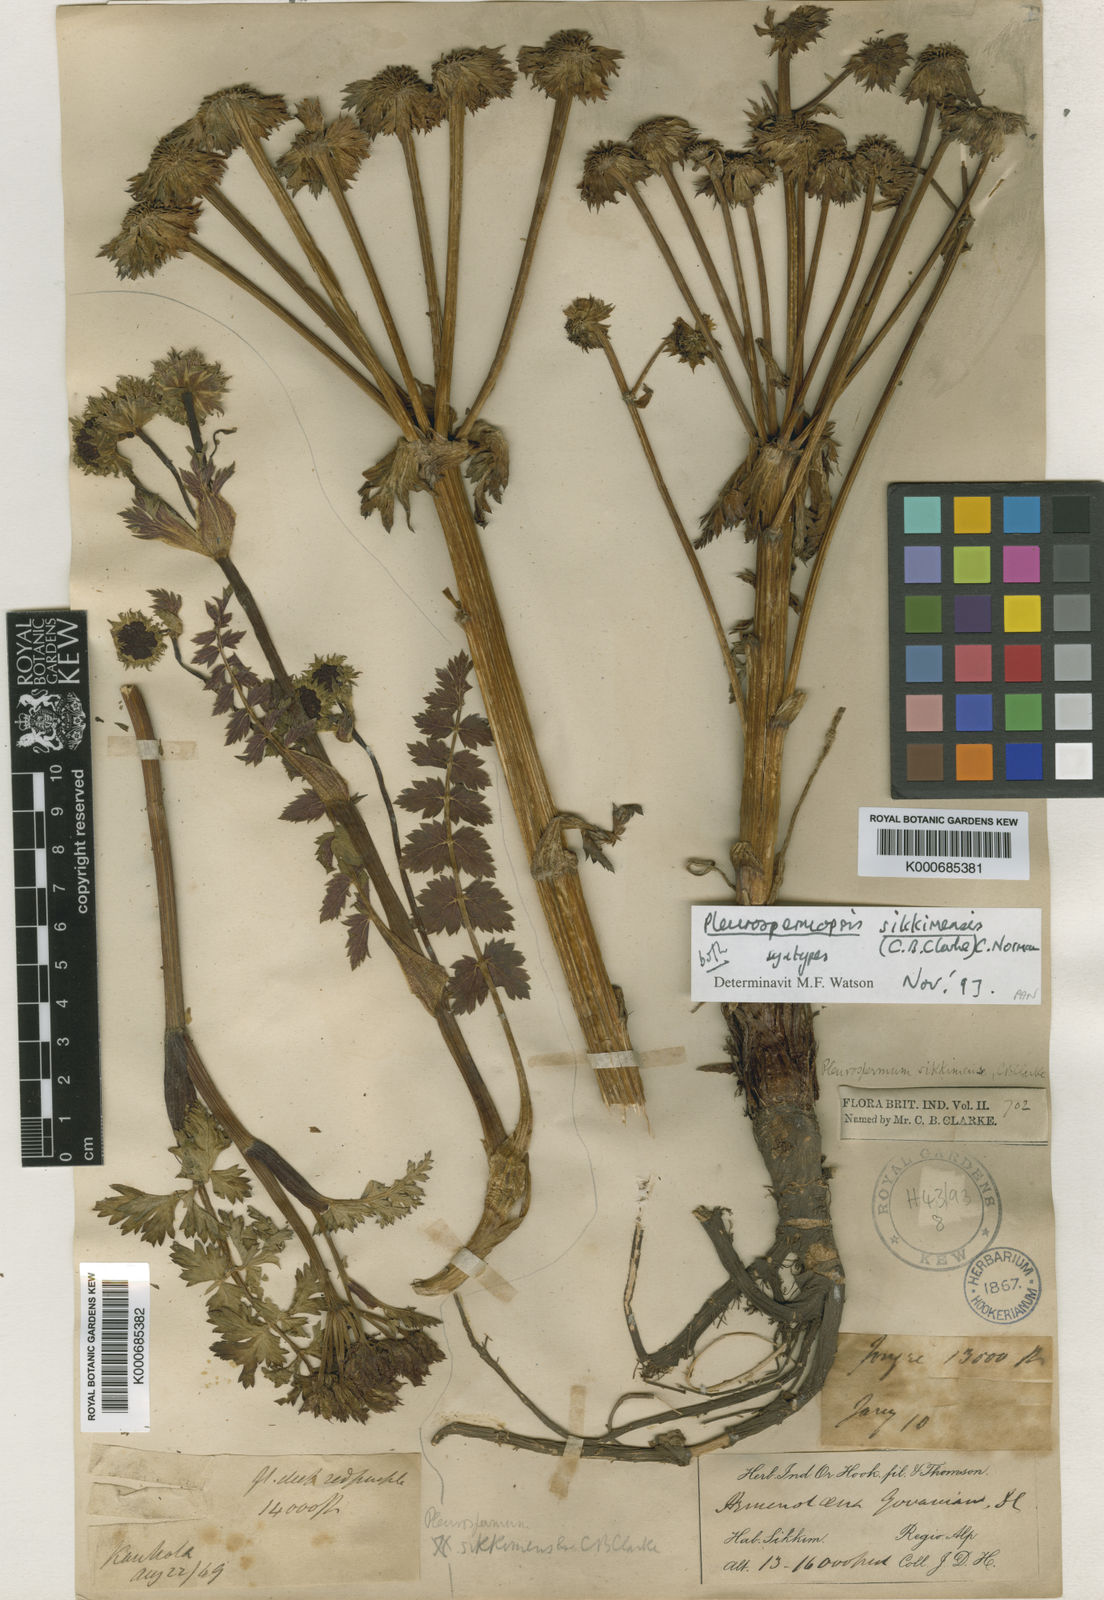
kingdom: Plantae
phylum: Tracheophyta
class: Magnoliopsida
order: Apiales
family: Apiaceae
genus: Pleurospermopsis
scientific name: Pleurospermopsis sikkimensis
